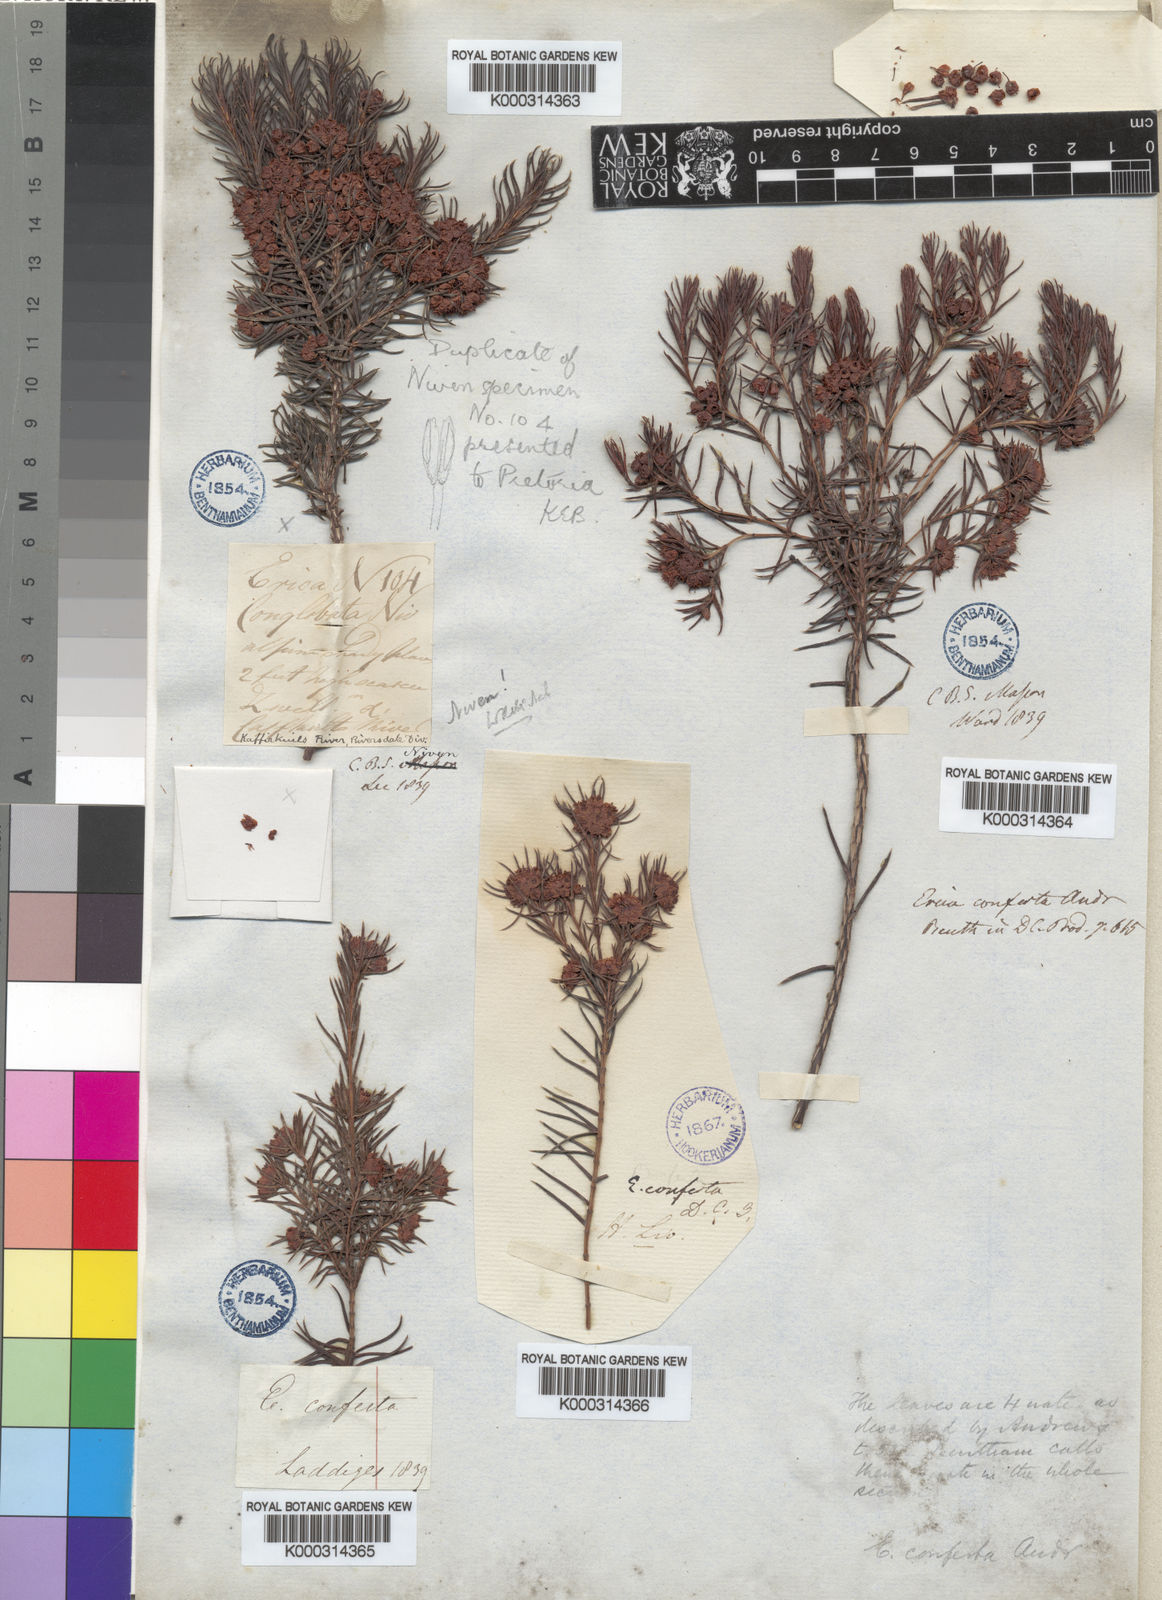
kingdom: Plantae
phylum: Tracheophyta
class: Magnoliopsida
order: Ericales
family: Ericaceae
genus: Erica
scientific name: Erica conferta
